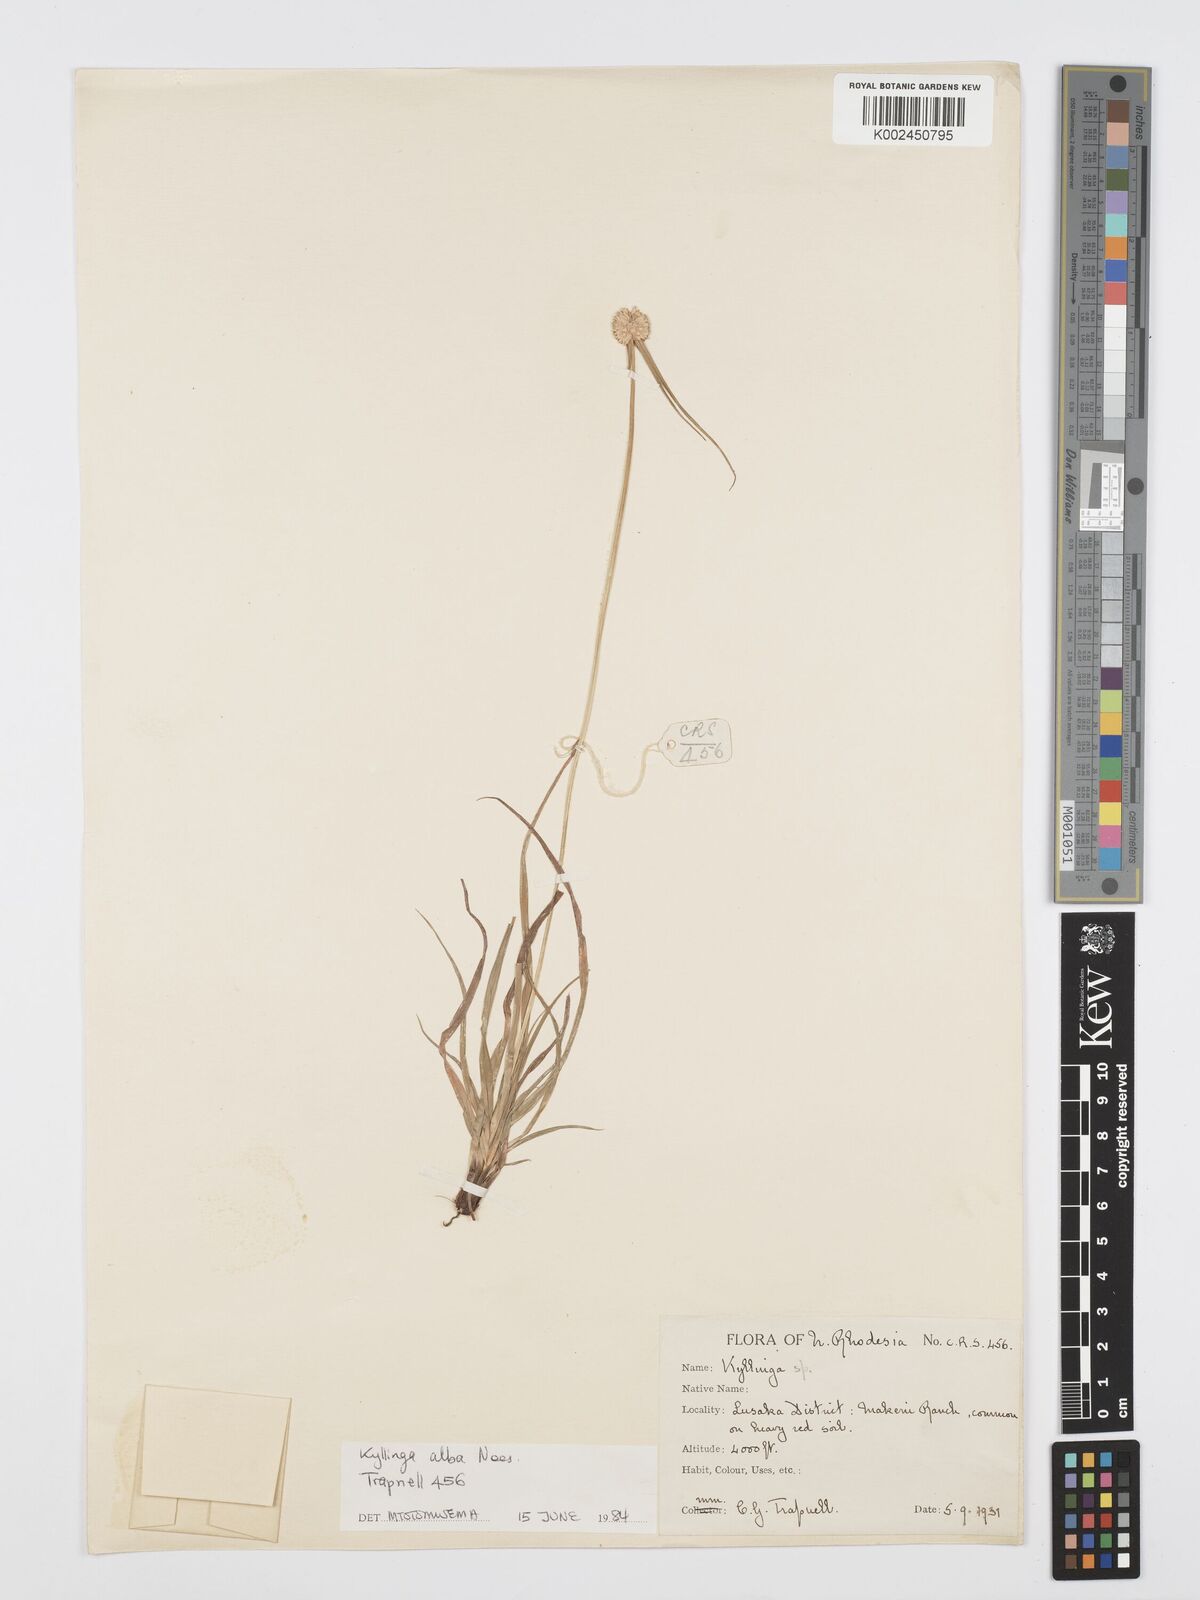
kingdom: Plantae
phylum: Tracheophyta
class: Liliopsida
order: Poales
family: Cyperaceae
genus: Cyperus
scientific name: Cyperus
